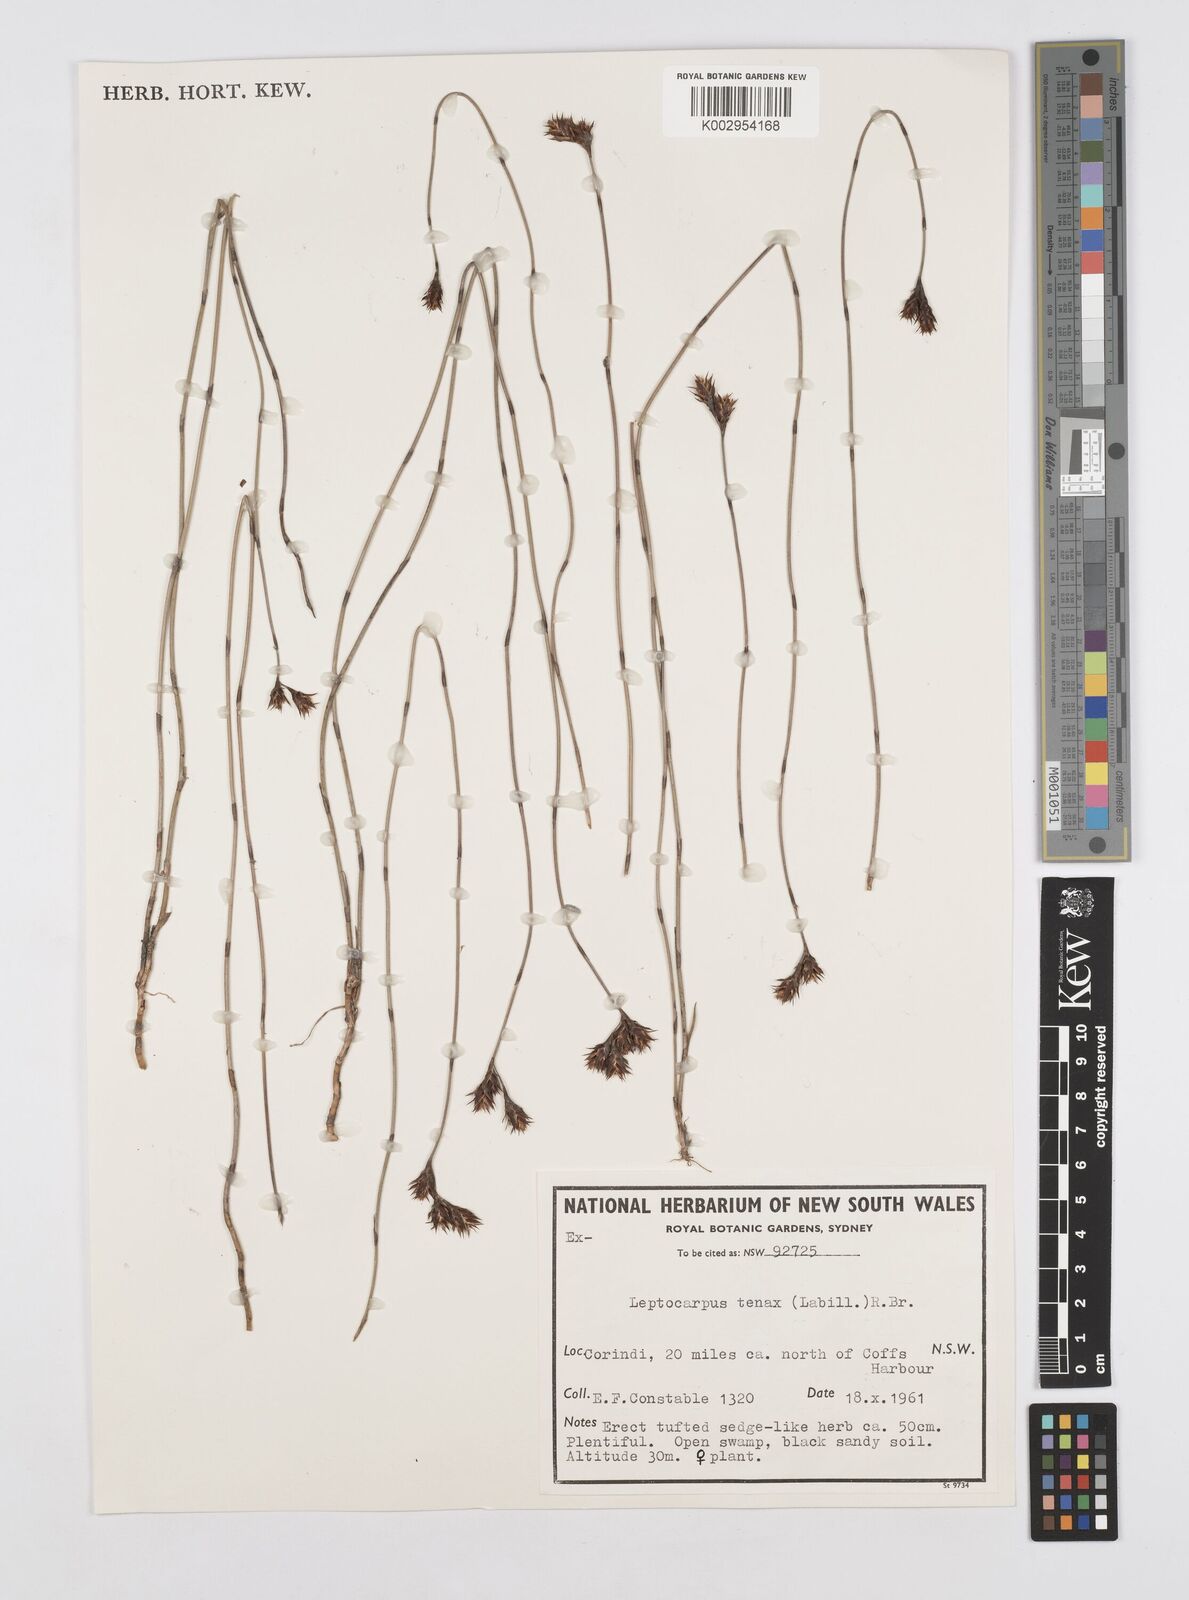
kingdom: Plantae
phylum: Tracheophyta
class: Liliopsida
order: Poales
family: Restionaceae
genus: Leptocarpus
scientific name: Leptocarpus tenax
